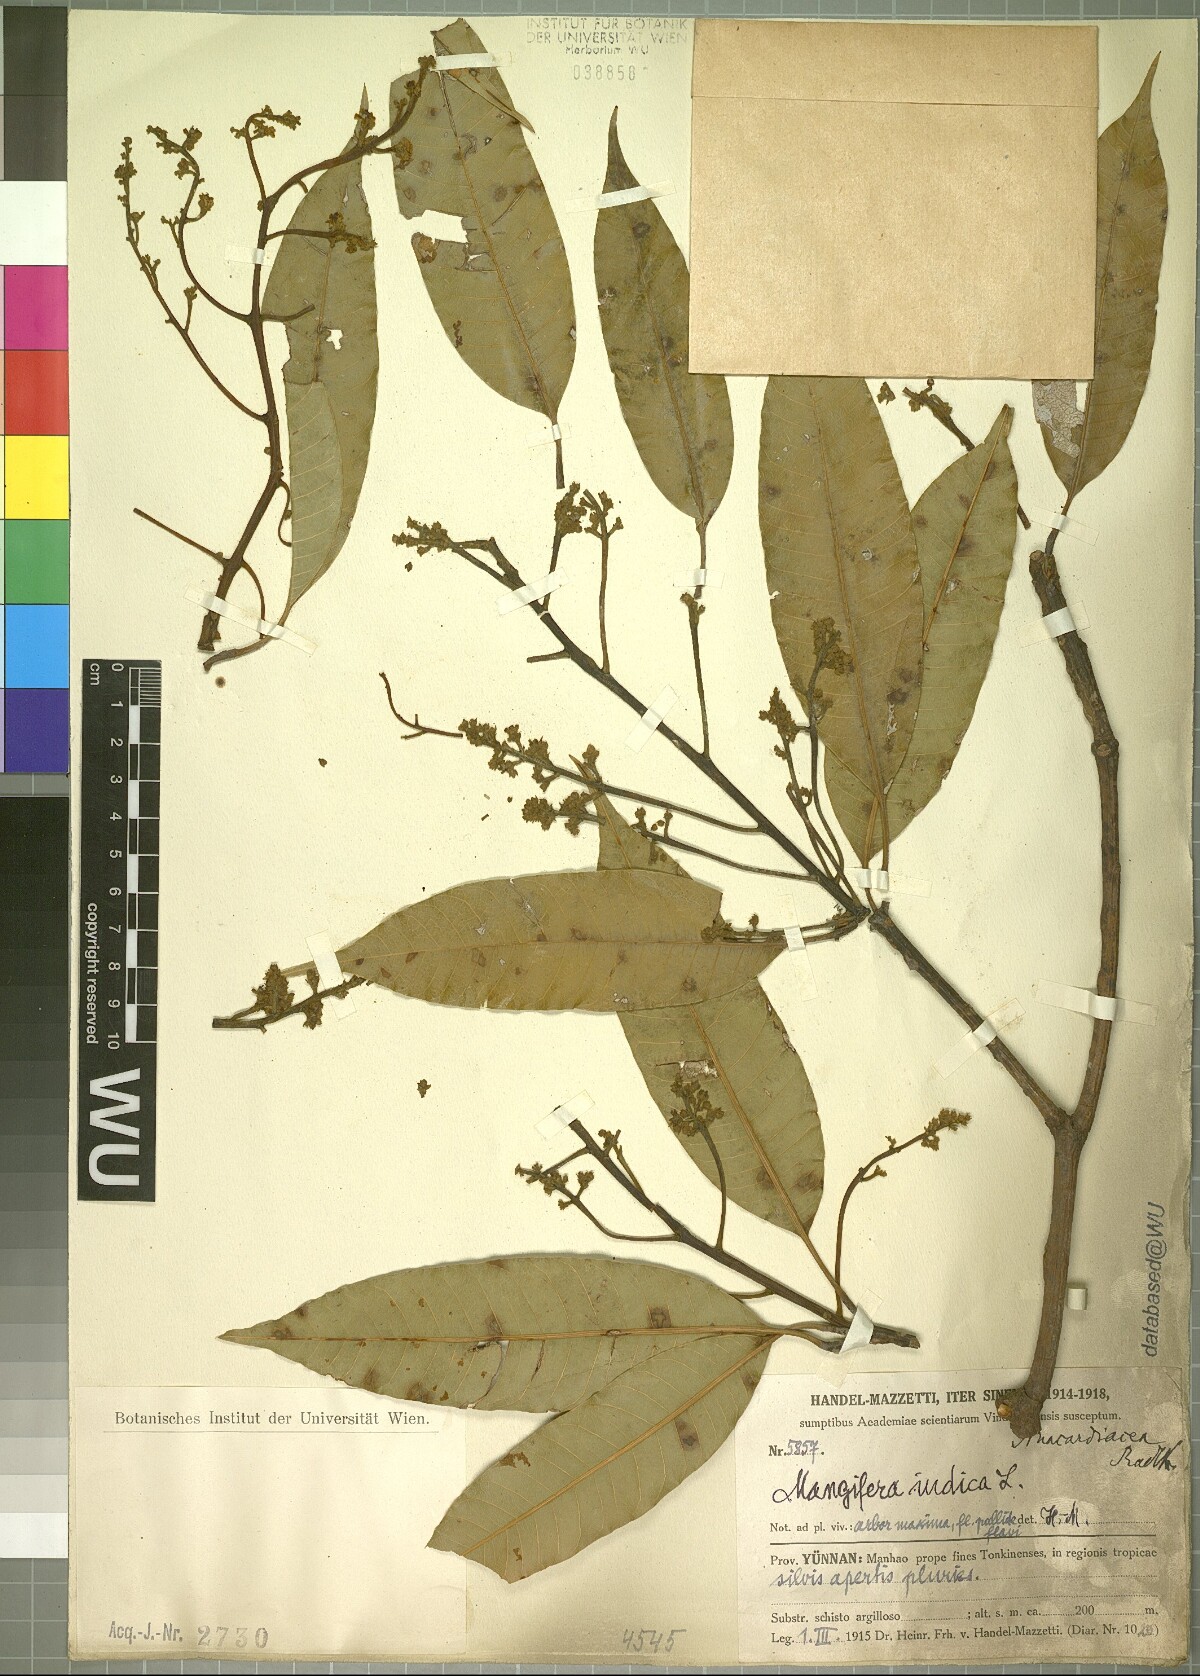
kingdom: Plantae
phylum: Tracheophyta
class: Magnoliopsida
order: Sapindales
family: Anacardiaceae
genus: Mangifera
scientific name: Mangifera indica
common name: Mango
